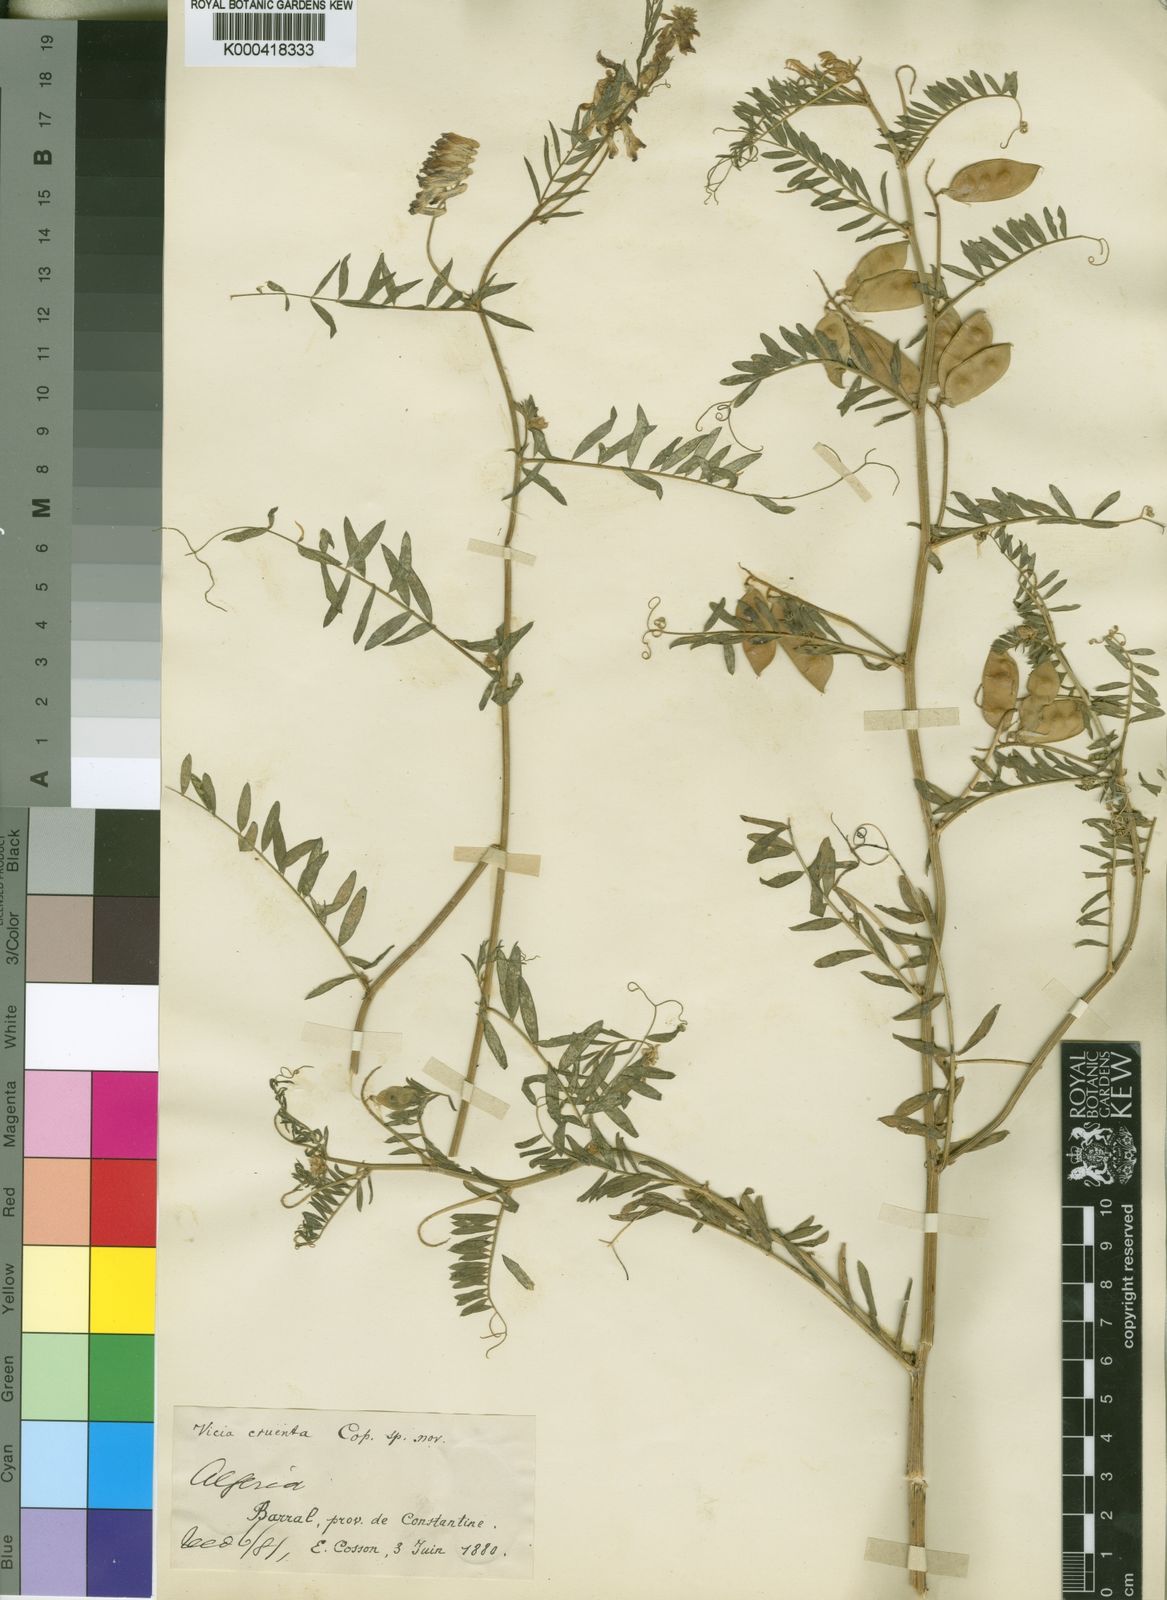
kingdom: Plantae
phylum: Tracheophyta
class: Magnoliopsida
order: Fabales
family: Fabaceae
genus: Vicia
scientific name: Vicia fulgens
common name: Scarlet vetch
